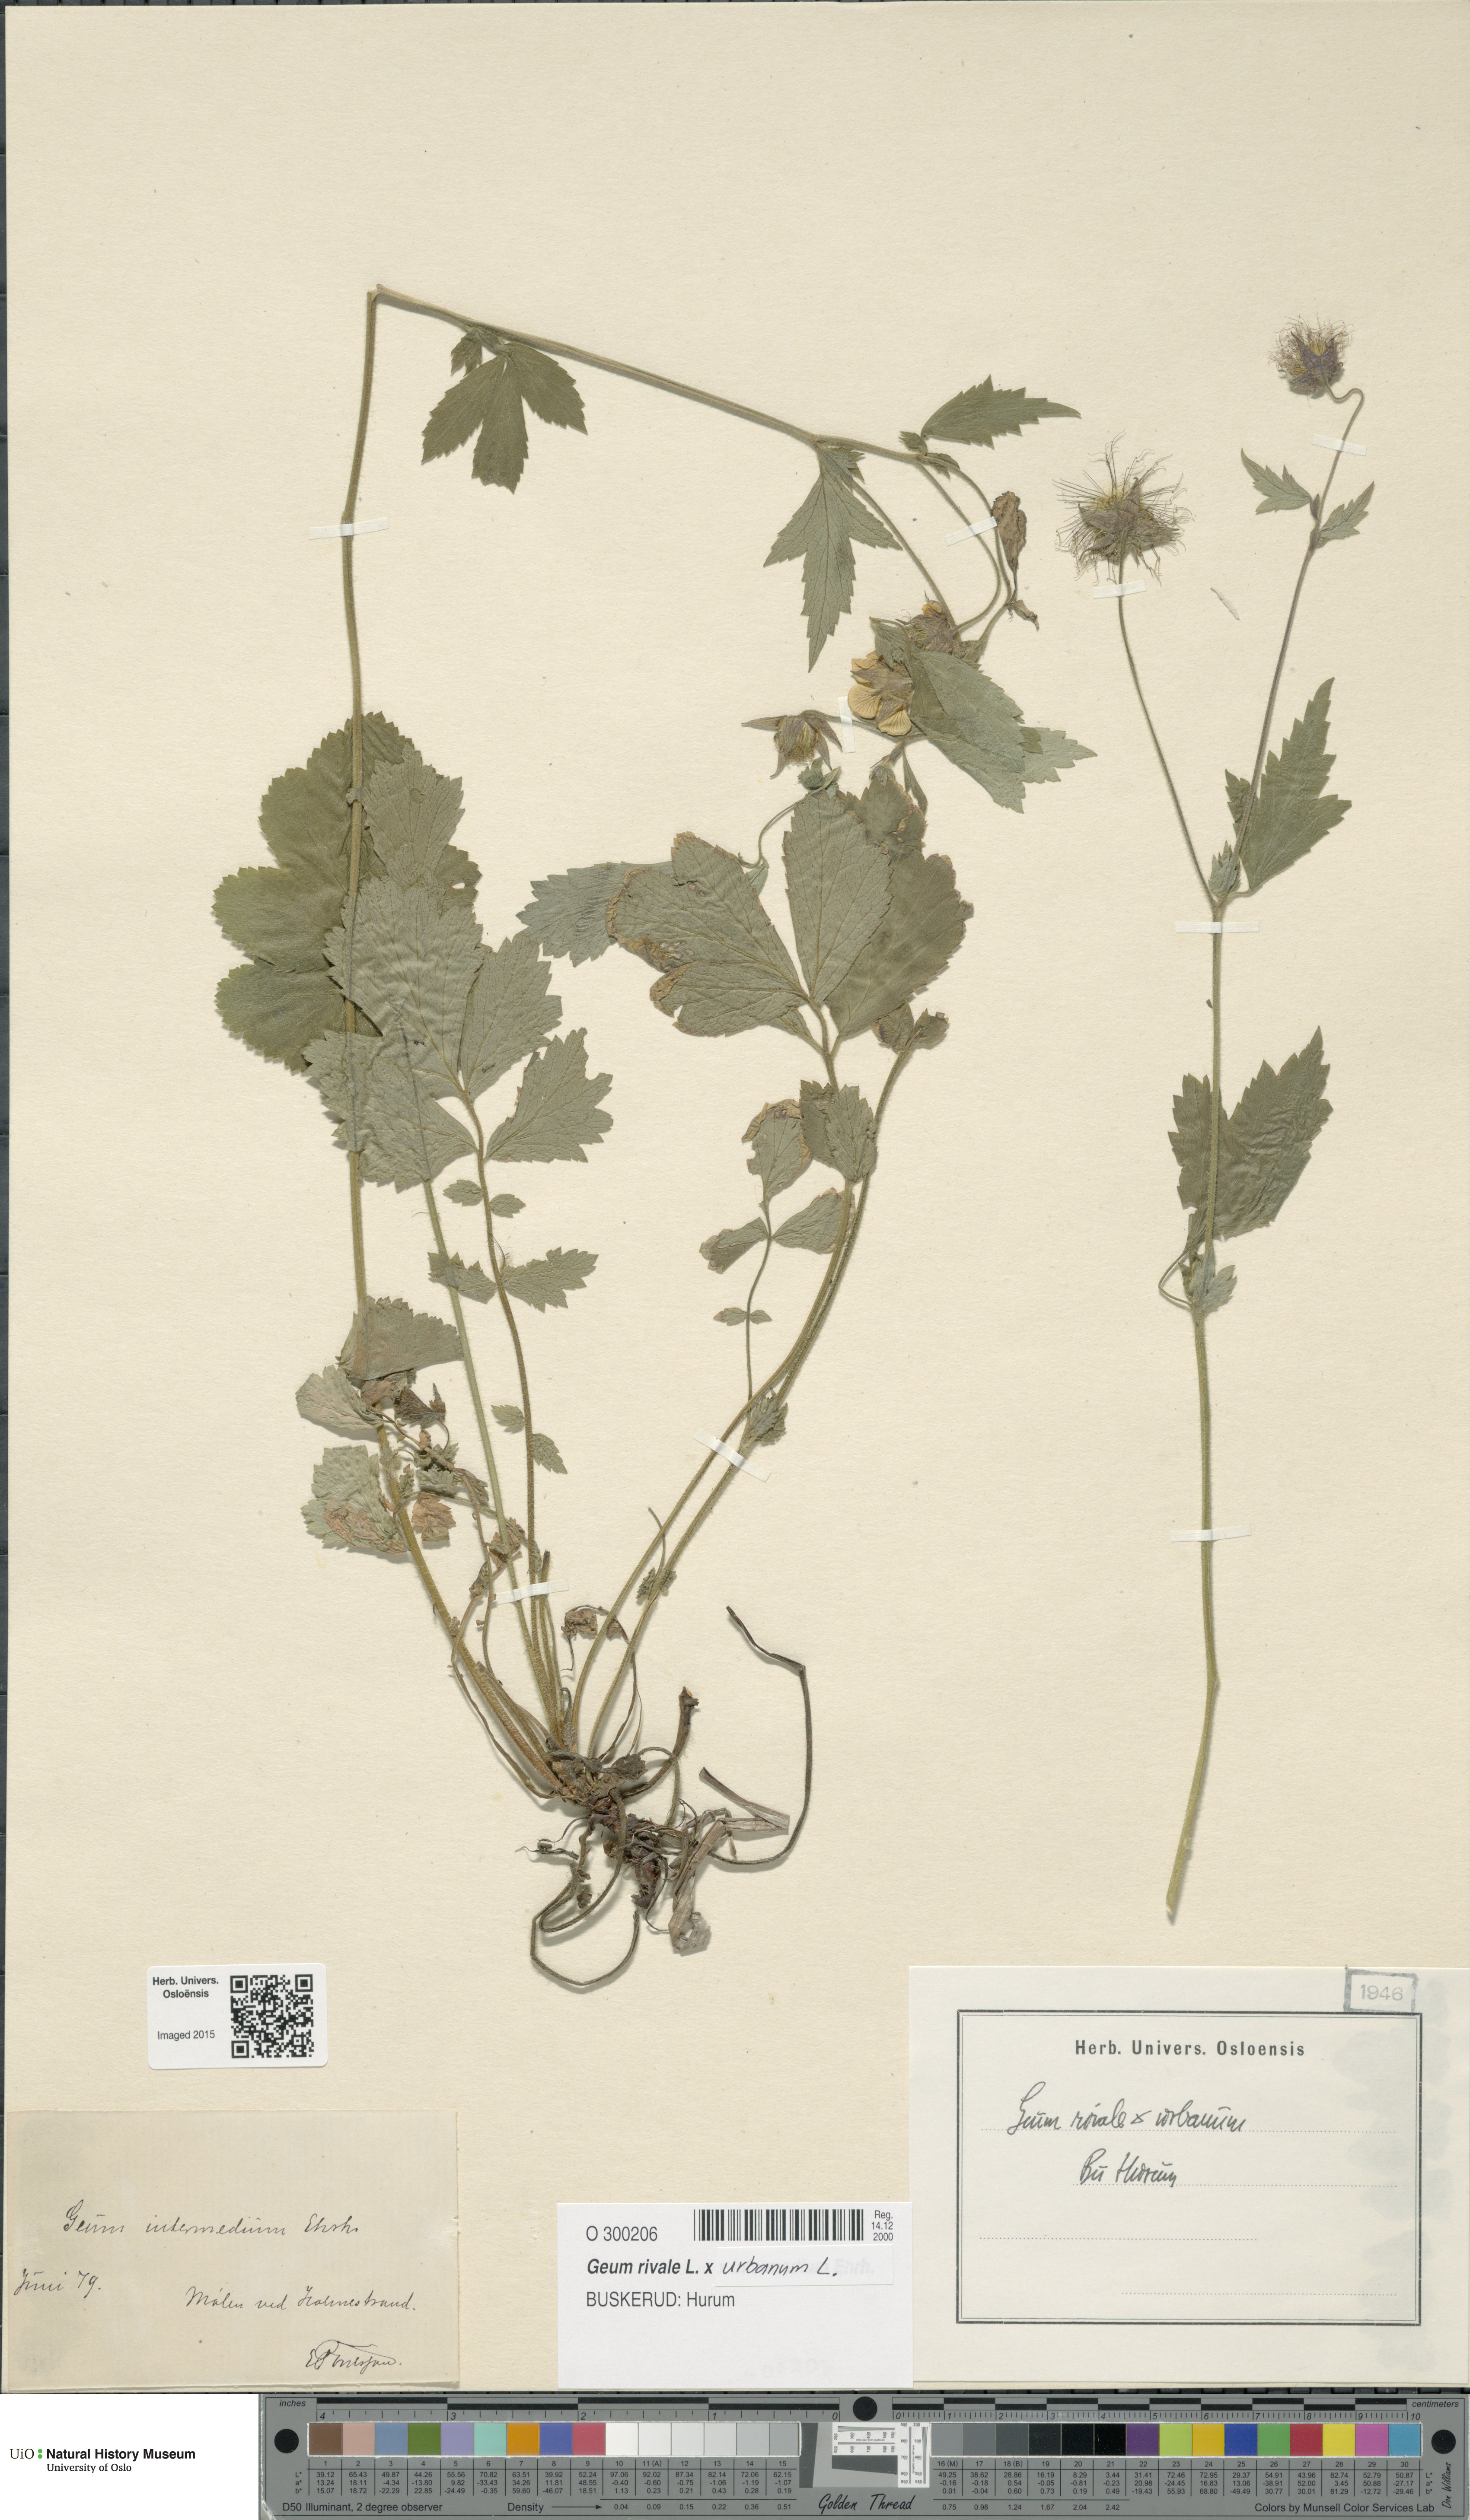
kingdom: Plantae
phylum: Tracheophyta
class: Magnoliopsida
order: Rosales
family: Rosaceae
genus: Geum
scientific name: Geum
